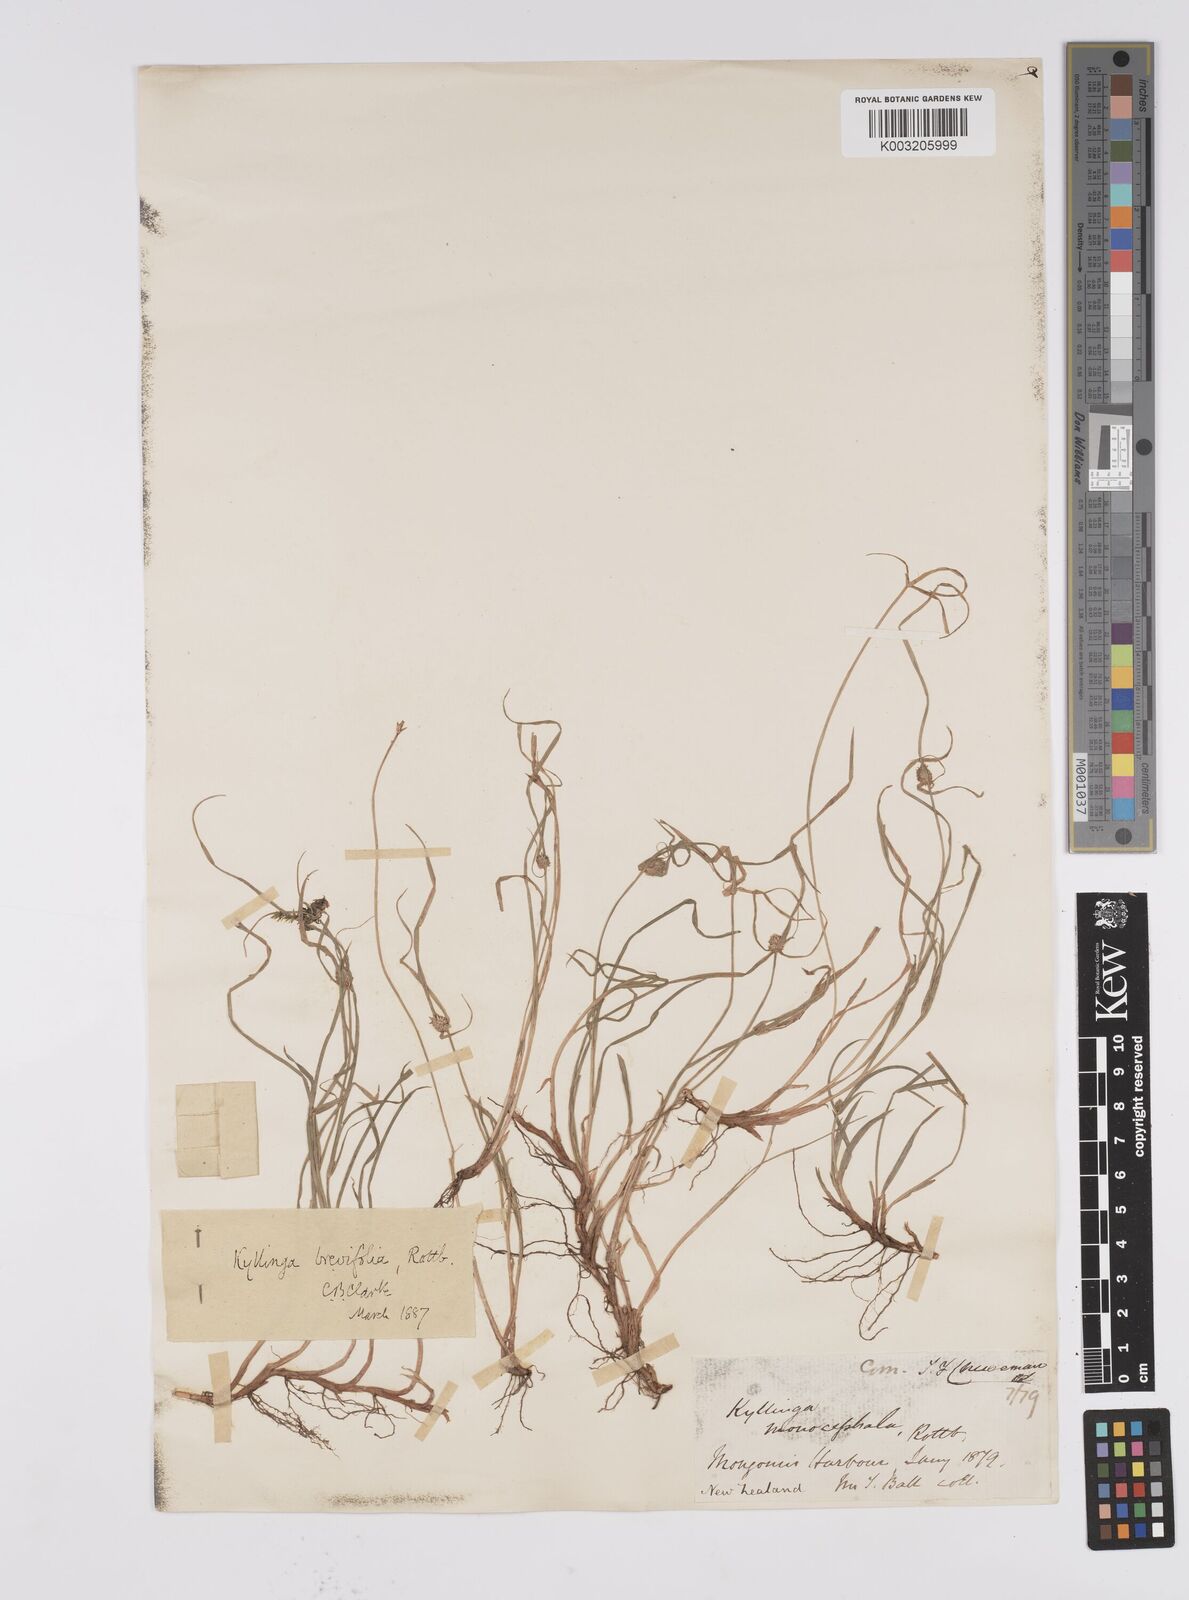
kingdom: Plantae
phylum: Tracheophyta
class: Liliopsida
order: Poales
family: Cyperaceae
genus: Cyperus
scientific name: Cyperus brevifolius
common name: Globe kyllinga
